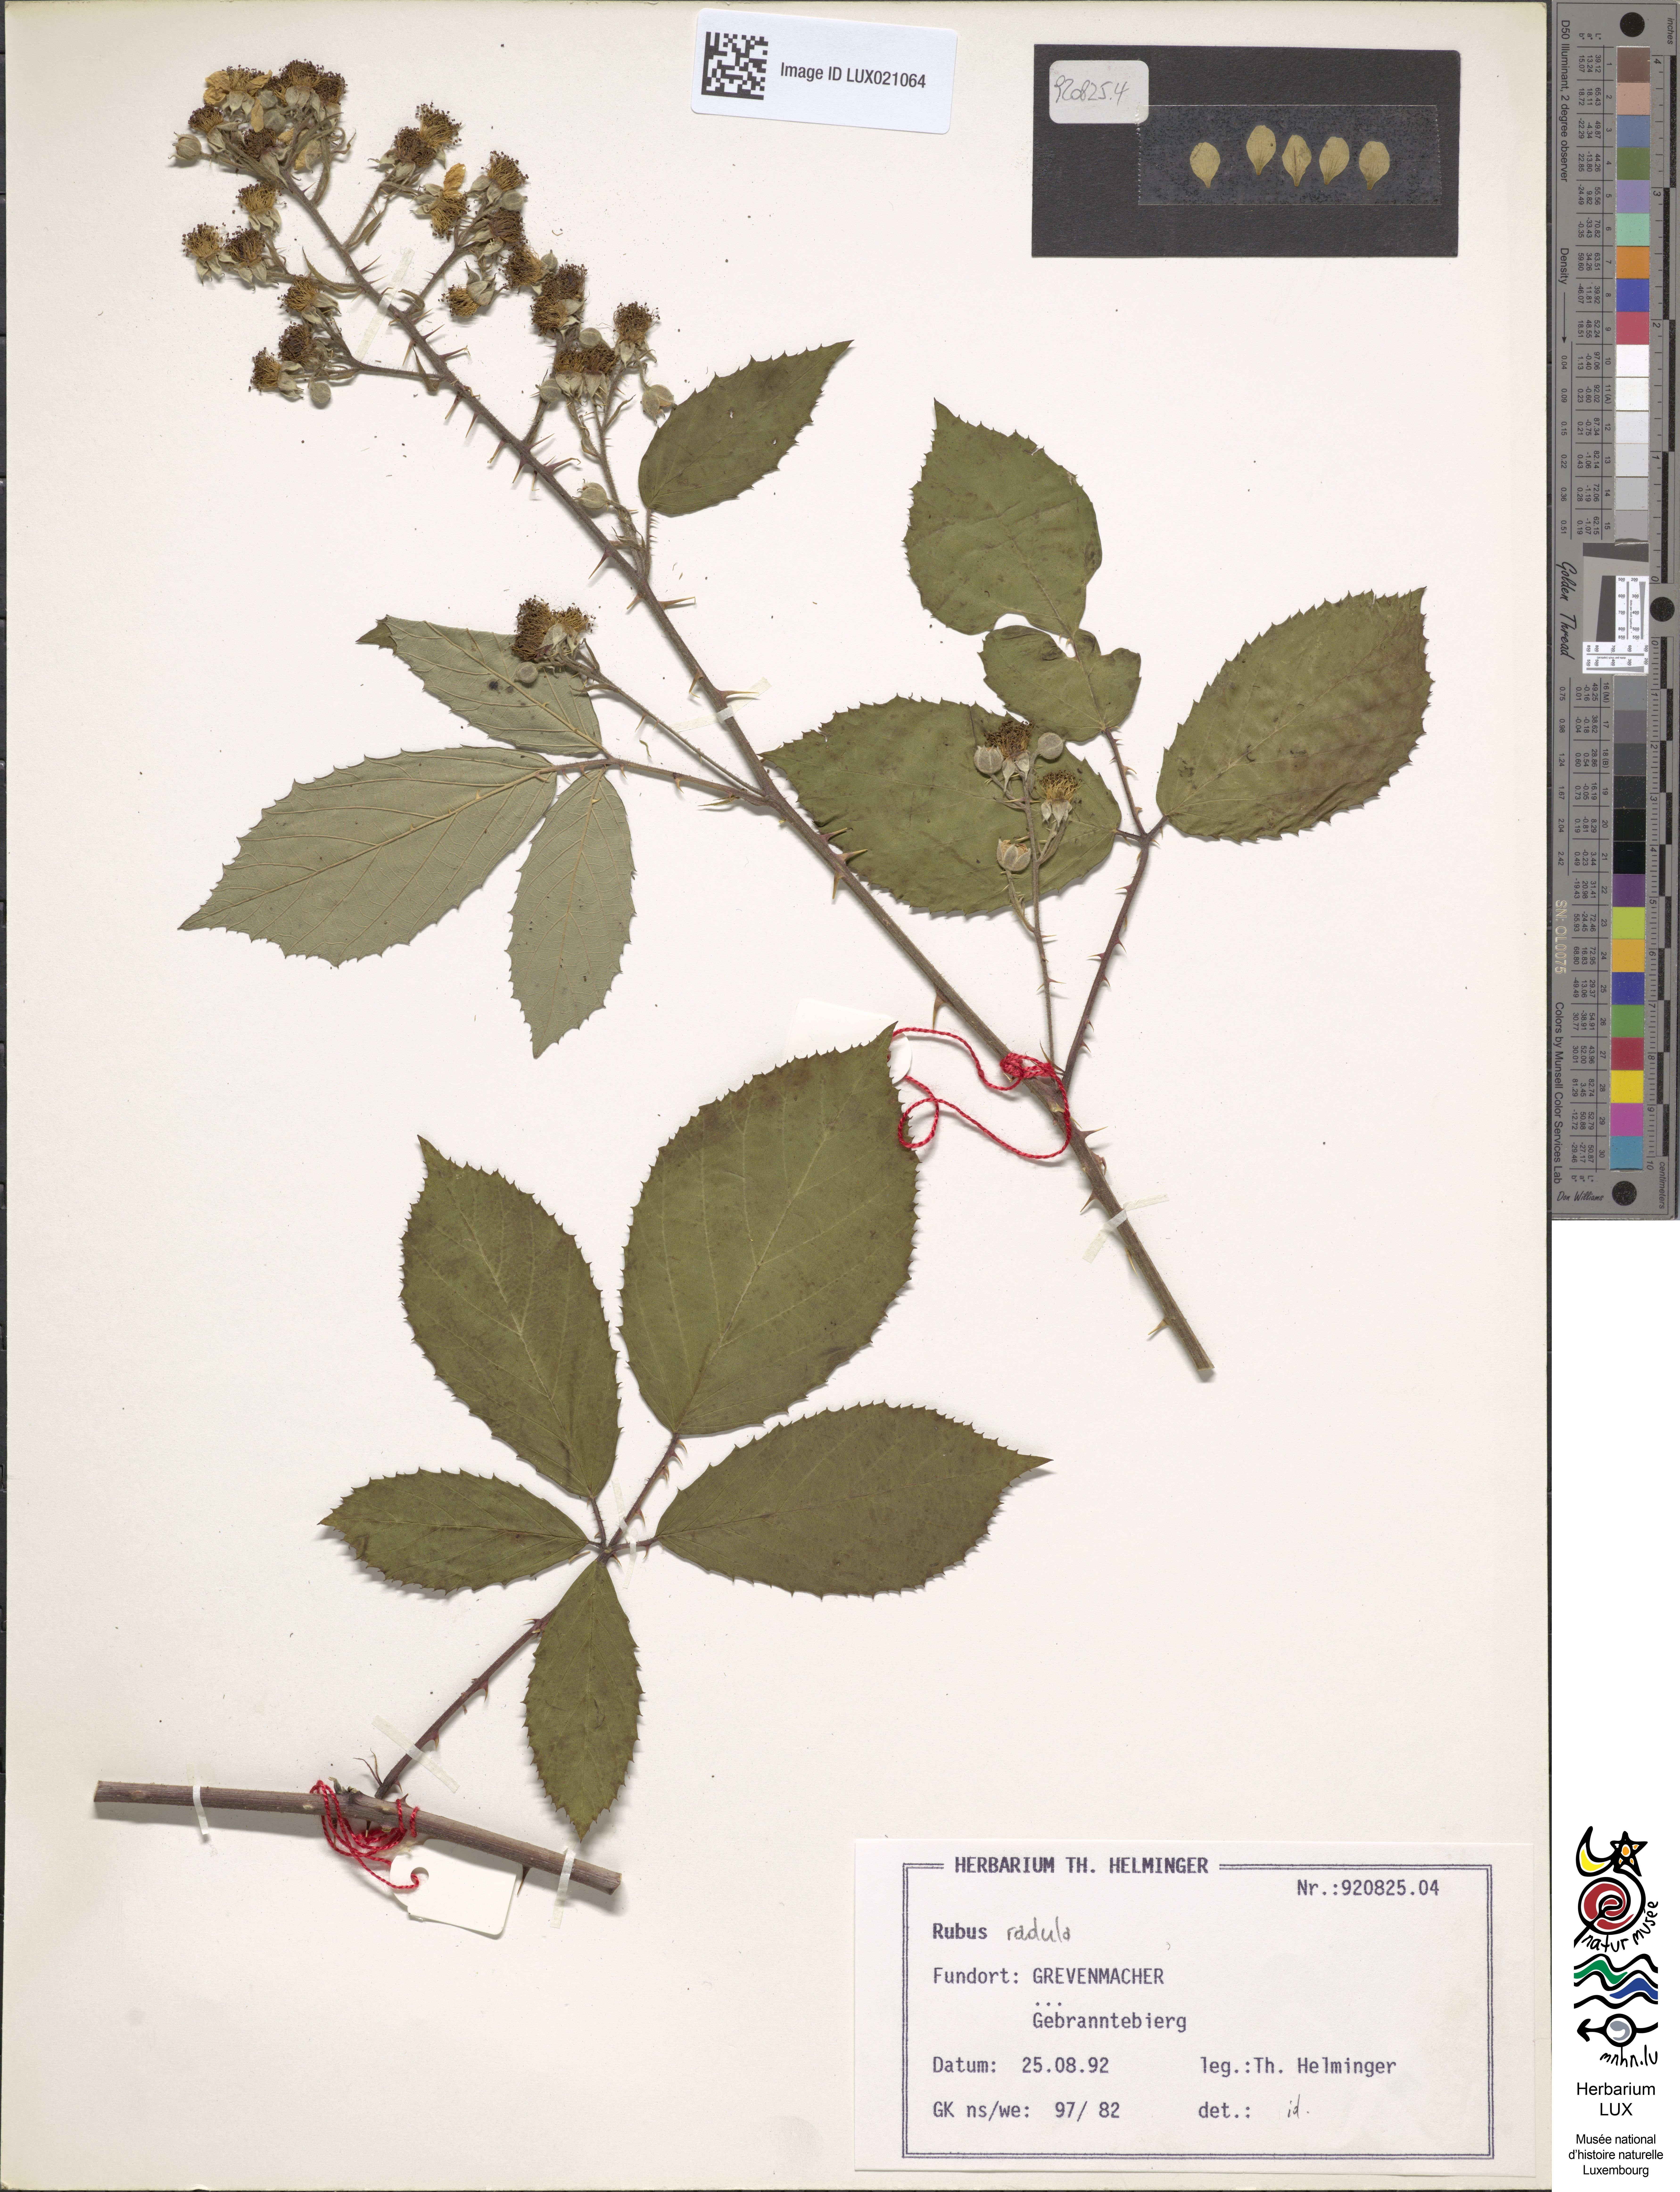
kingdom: Plantae
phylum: Tracheophyta
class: Magnoliopsida
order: Rosales
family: Rosaceae
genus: Rubus
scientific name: Rubus radula
